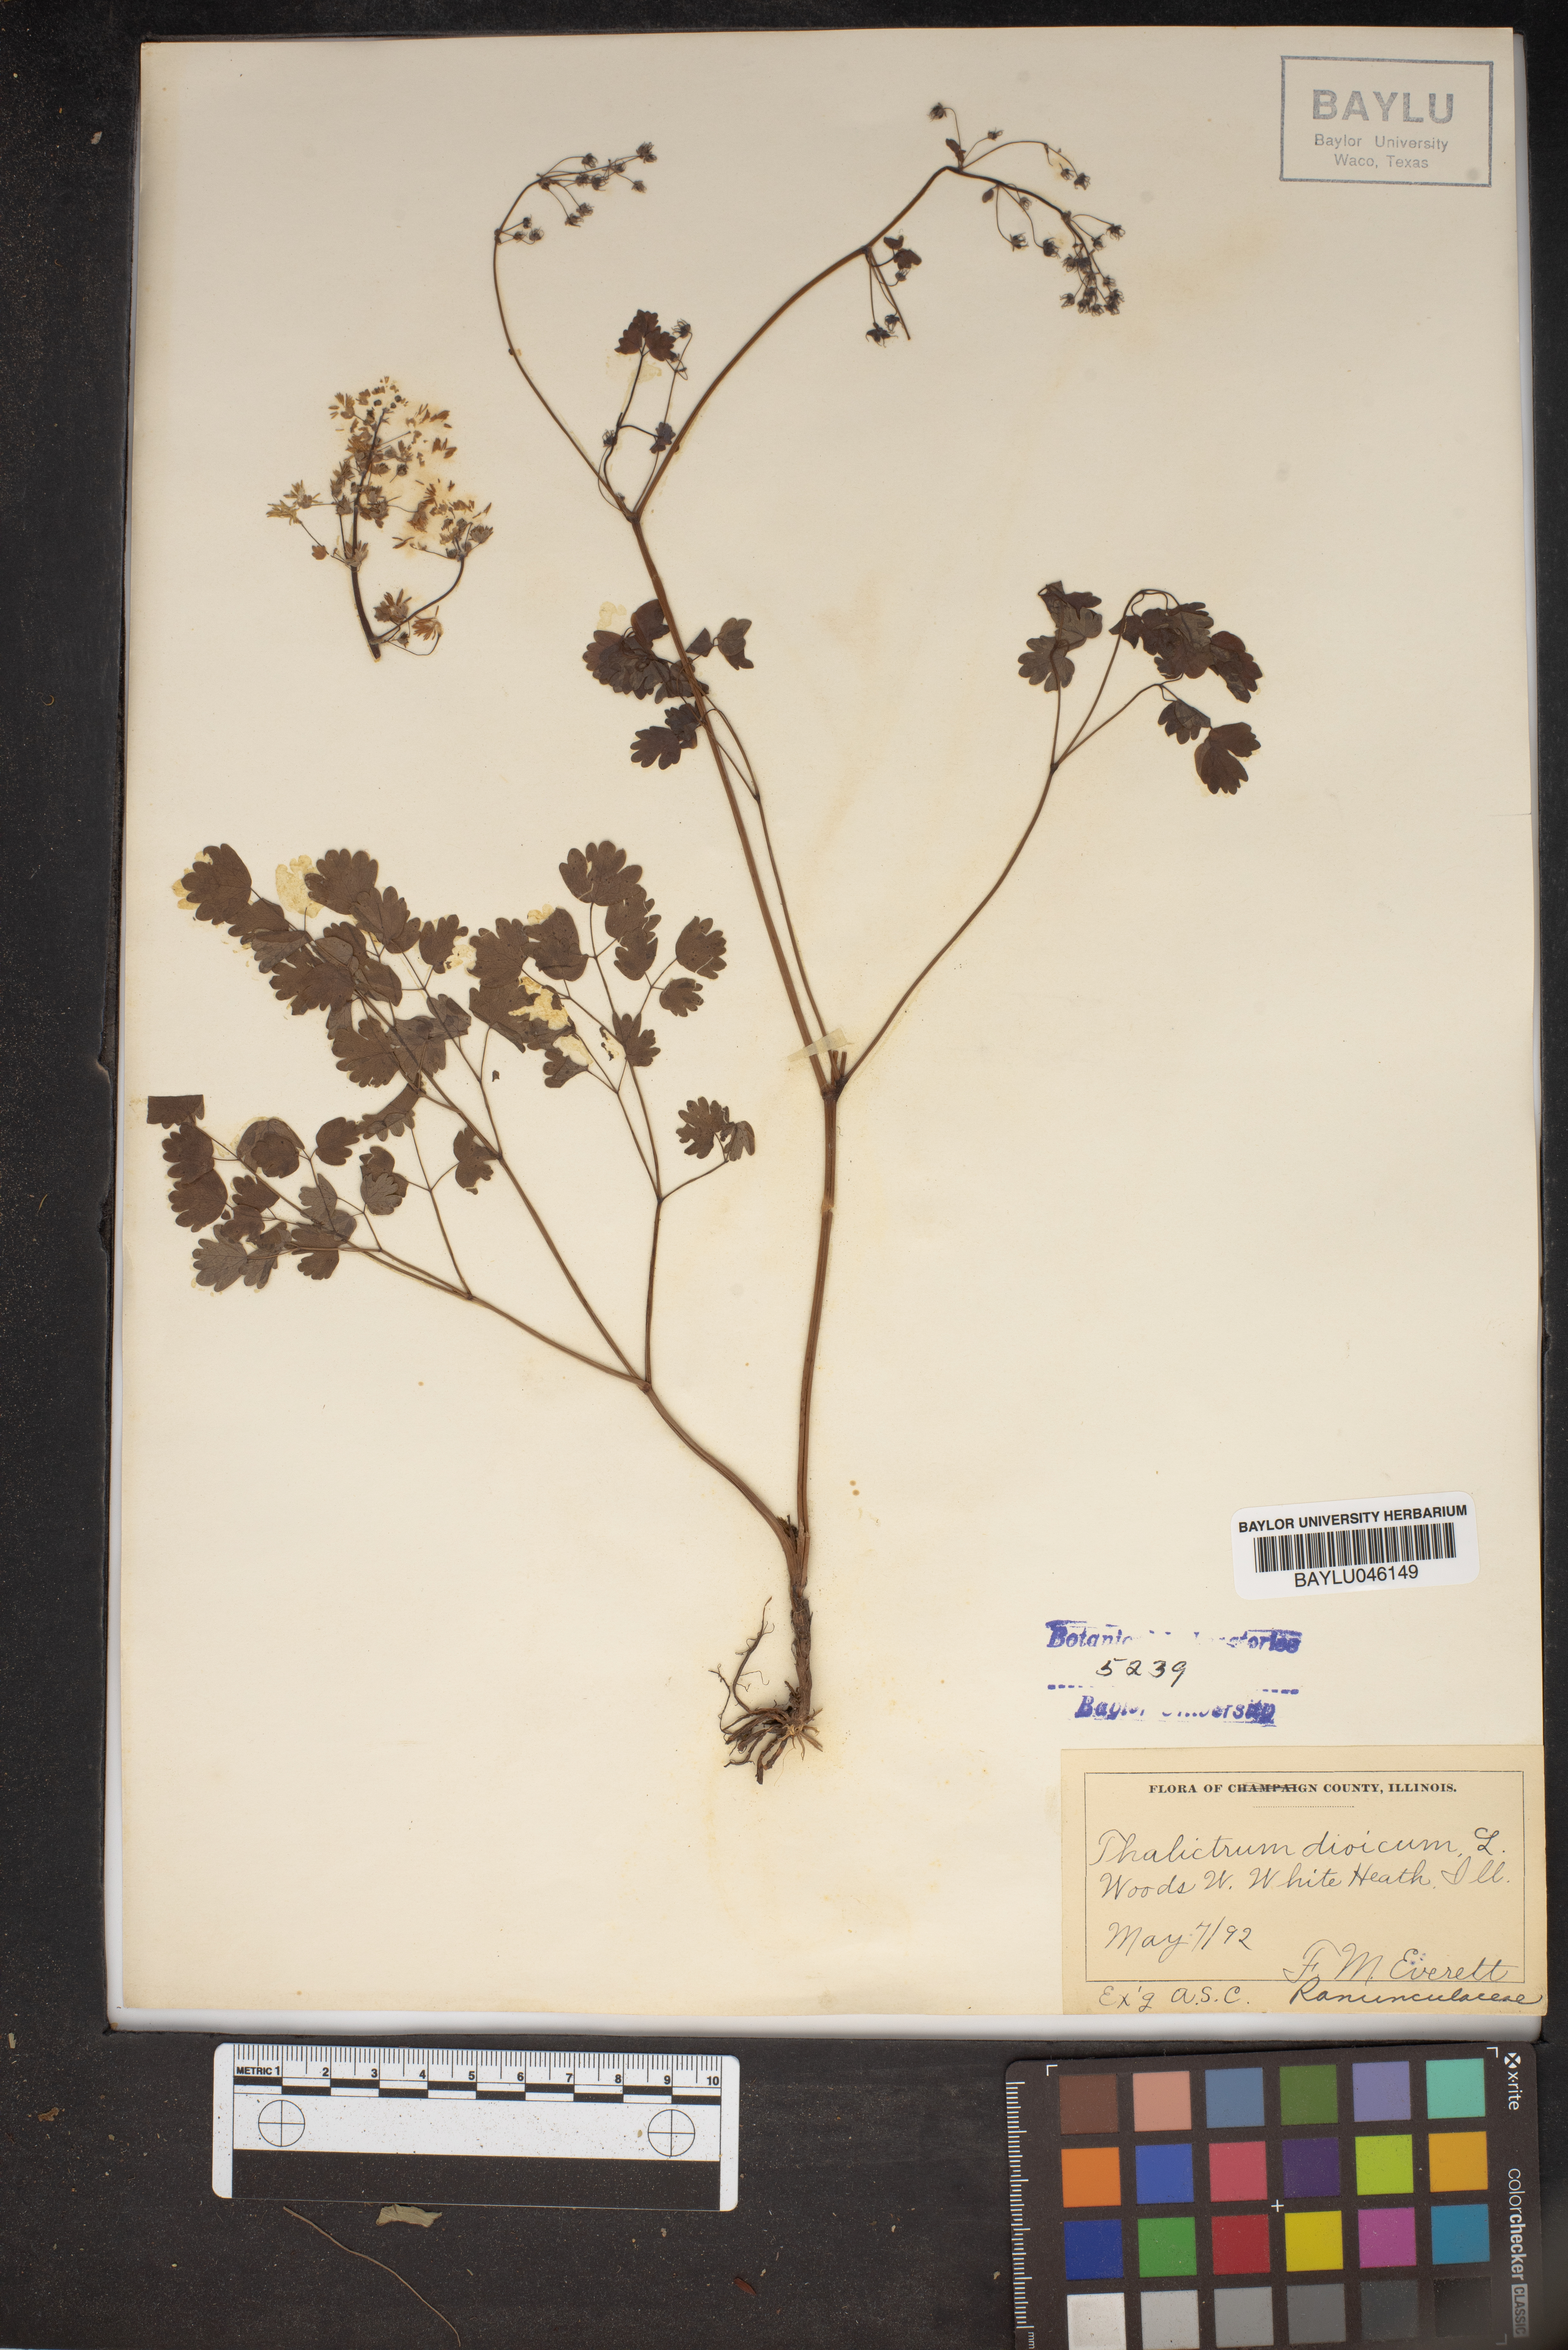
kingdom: Plantae
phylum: Tracheophyta
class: Magnoliopsida
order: Ranunculales
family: Ranunculaceae
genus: Thalictrum
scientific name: Thalictrum dioicum
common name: Early meadow-rue
